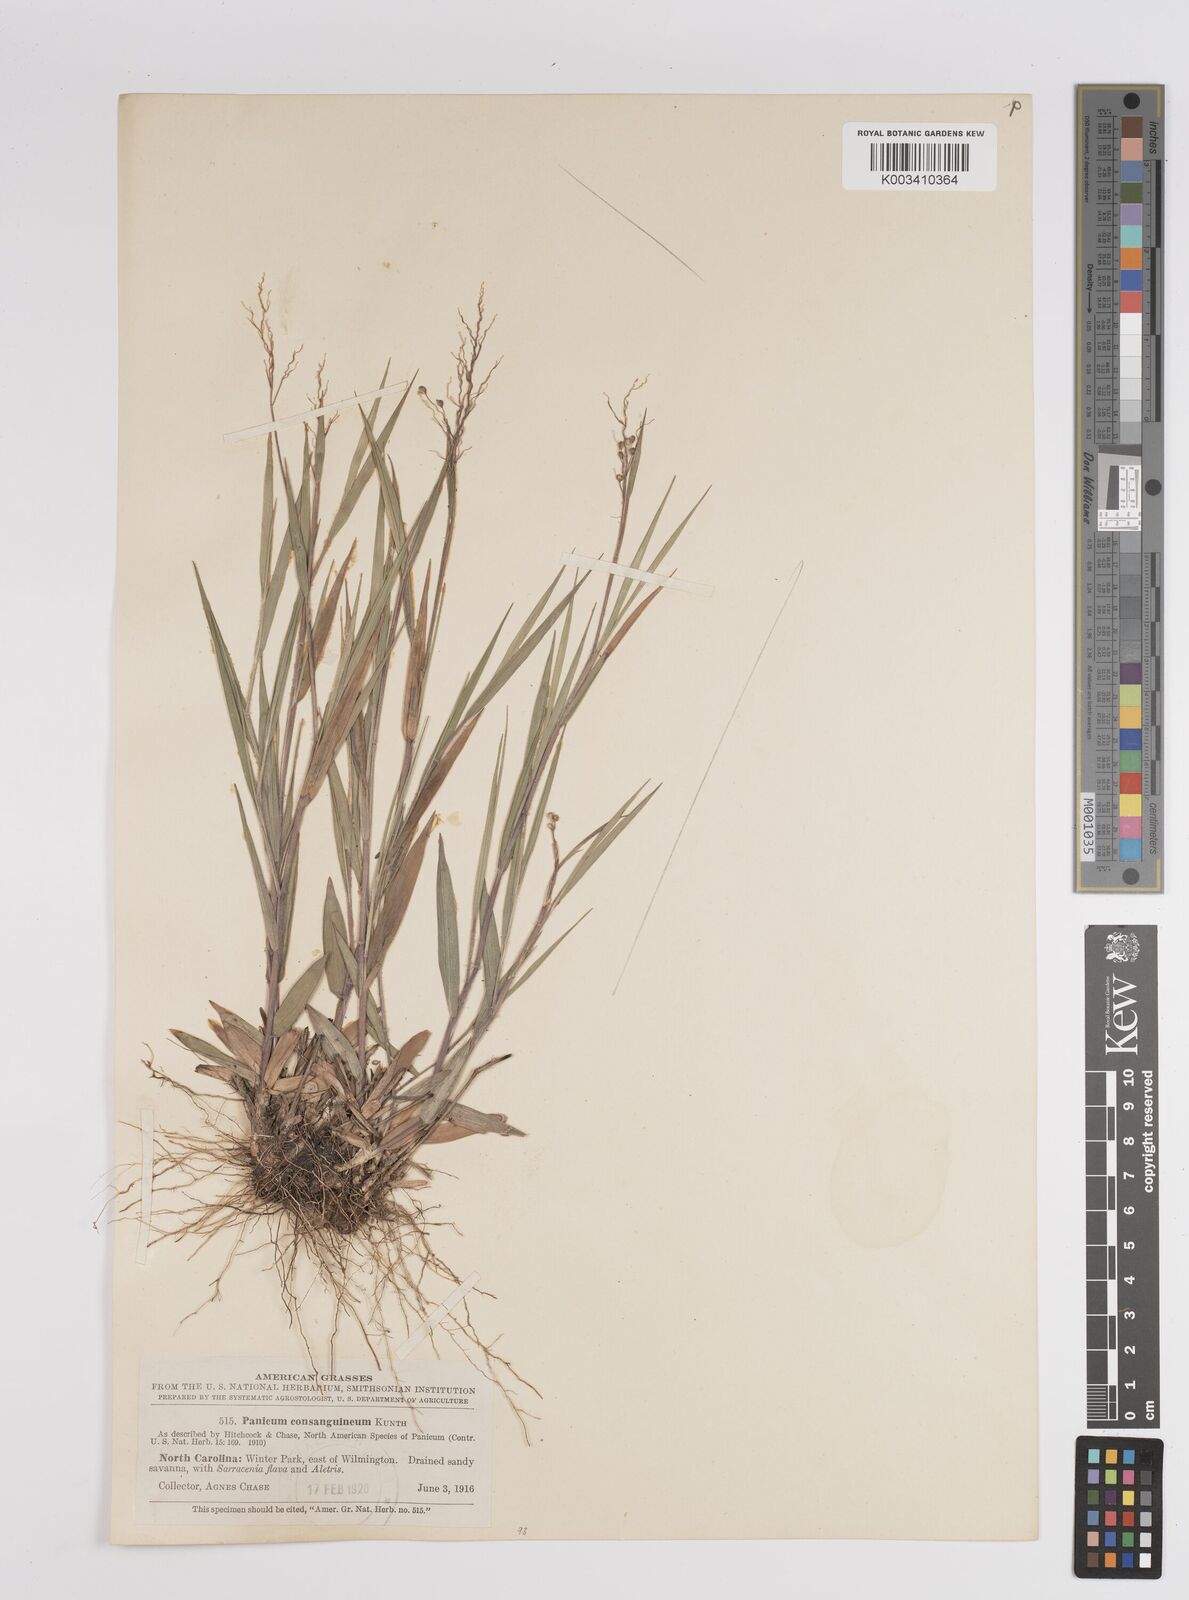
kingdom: Plantae
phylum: Tracheophyta
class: Liliopsida
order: Poales
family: Poaceae
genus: Dichanthelium
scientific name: Dichanthelium consanguineum
